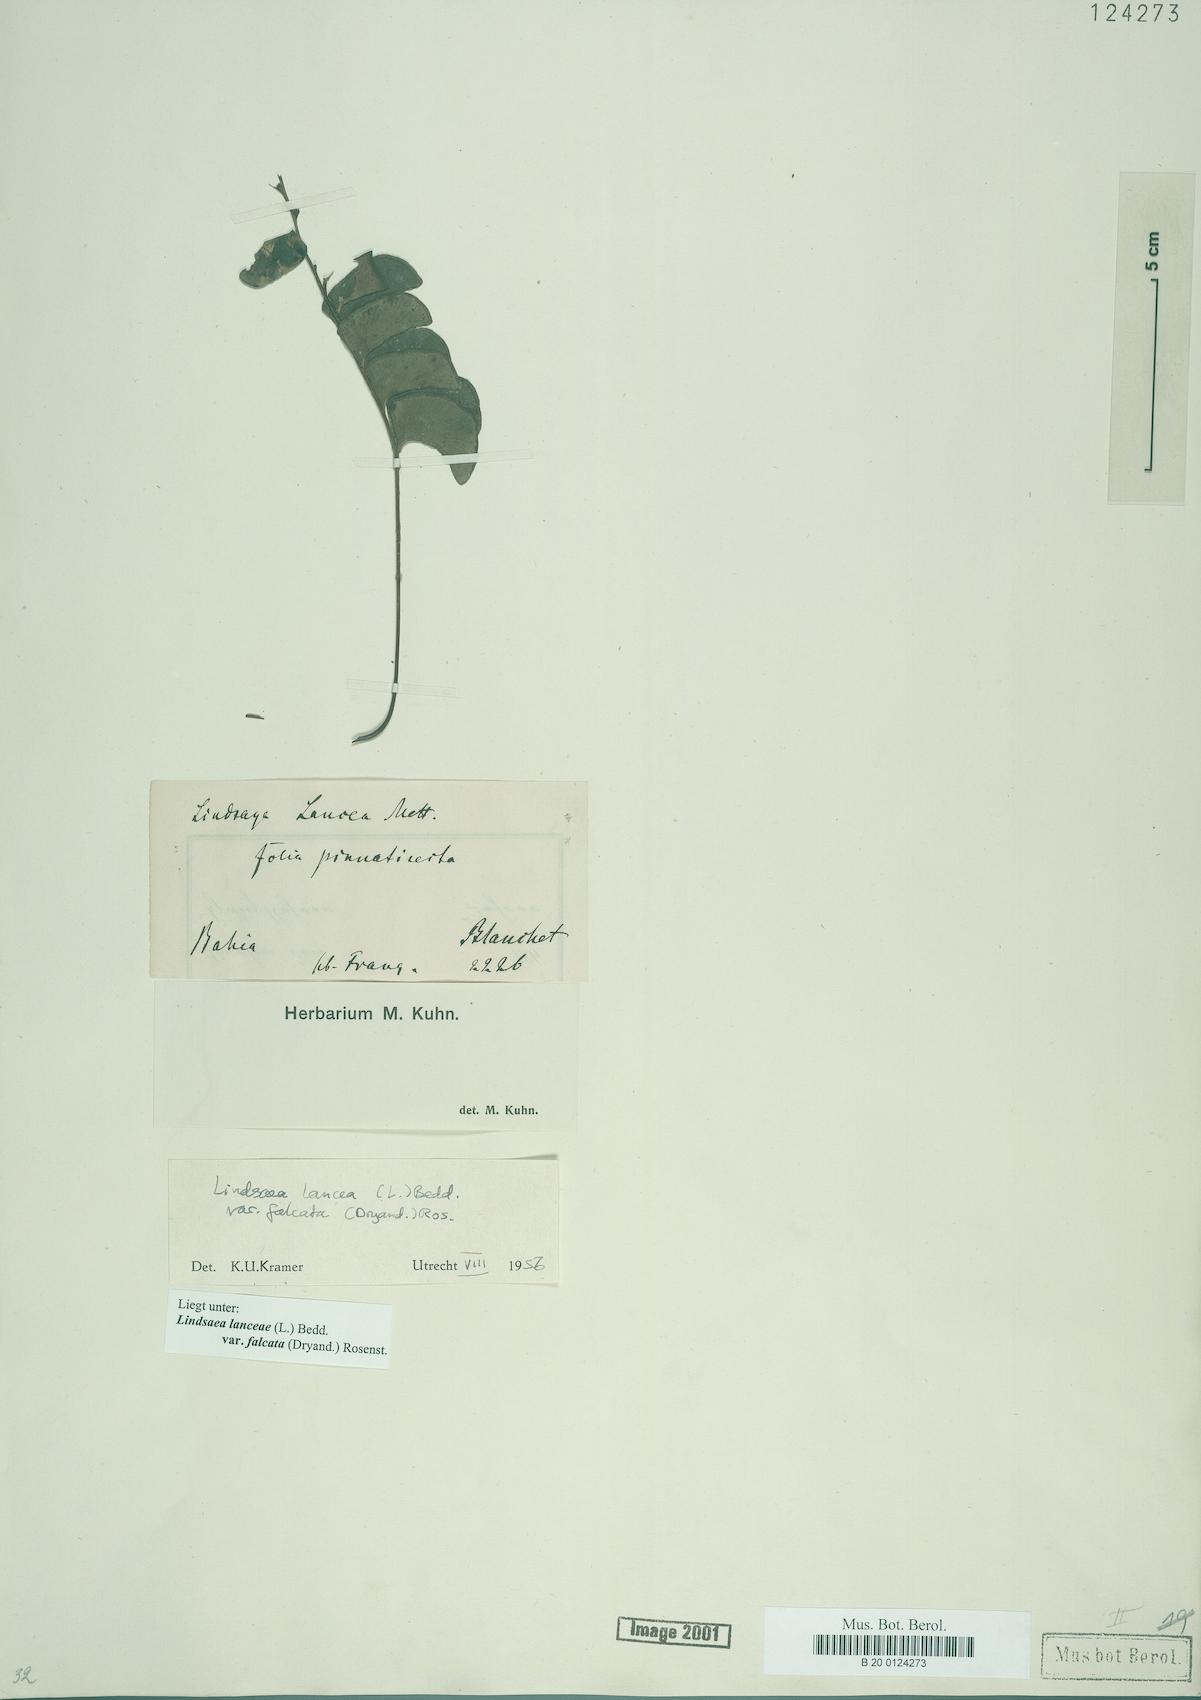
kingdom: Plantae
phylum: Tracheophyta
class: Polypodiopsida
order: Polypodiales
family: Lindsaeaceae
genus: Lindsaea
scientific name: Lindsaea falcata
